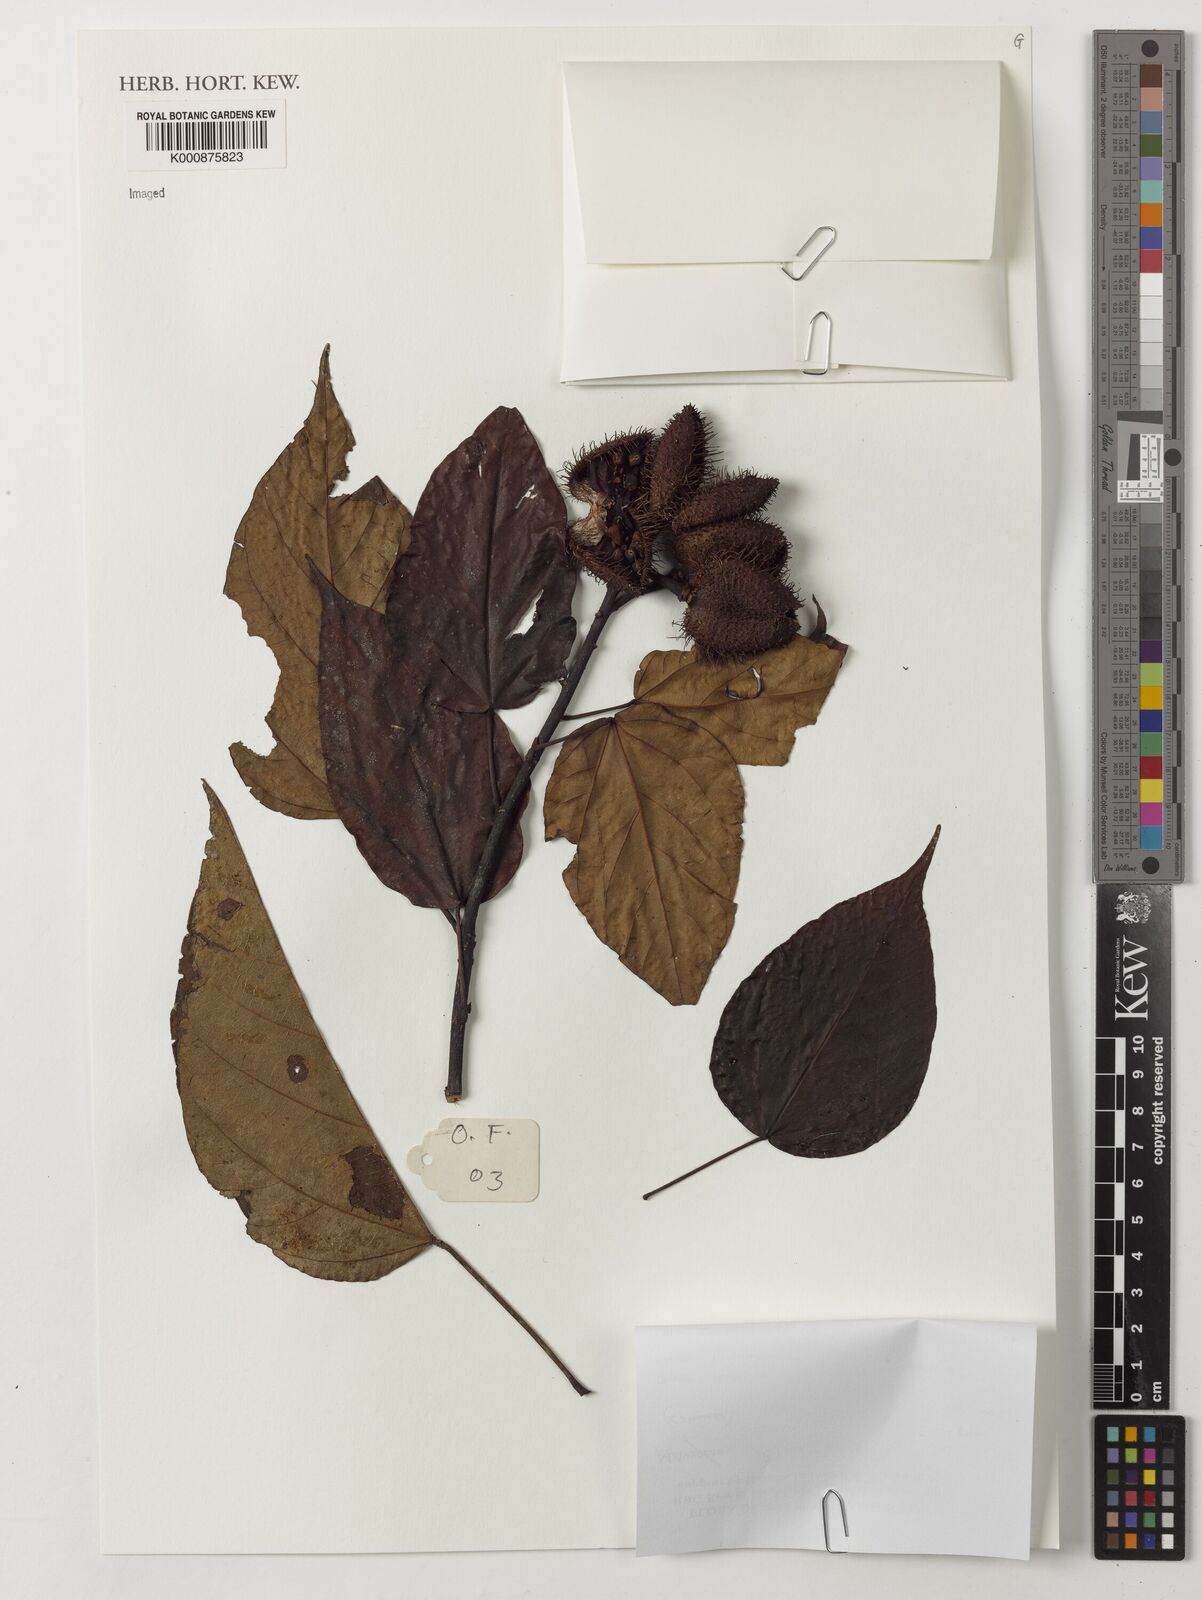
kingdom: Plantae
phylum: Tracheophyta
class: Magnoliopsida
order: Malvales
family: Bixaceae
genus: Bixa
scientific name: Bixa orellana
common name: Lipsticktree
